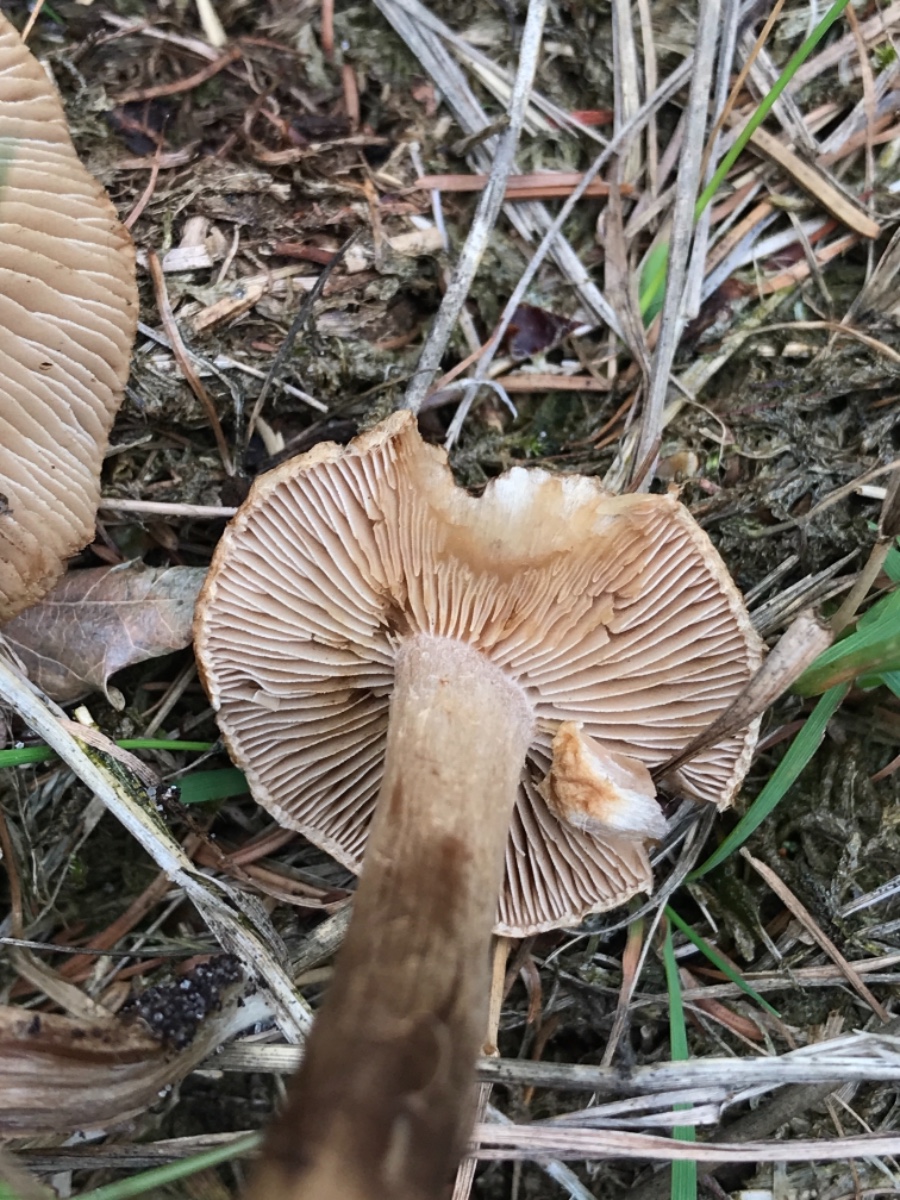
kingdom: Fungi
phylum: Basidiomycota
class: Agaricomycetes
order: Agaricales
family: Inocybaceae
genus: Inocybe
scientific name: Inocybe lacera
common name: laset trævlhat
